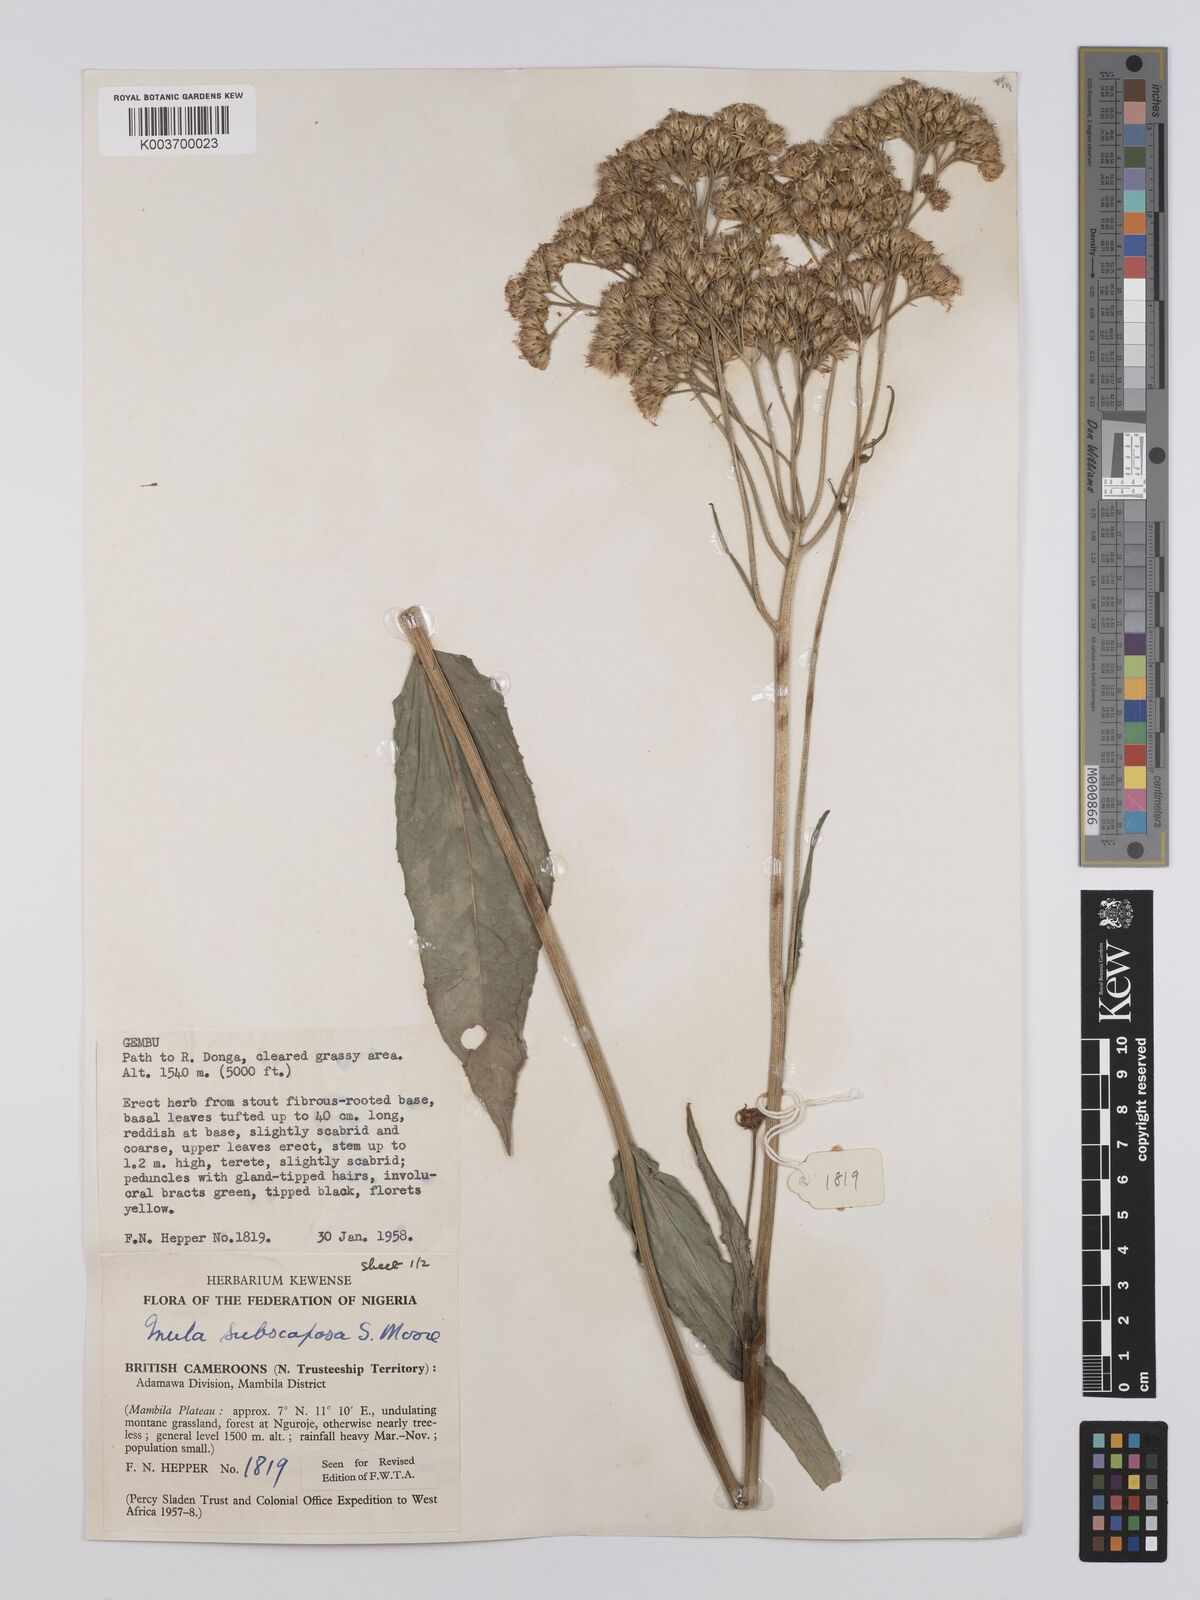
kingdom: Plantae
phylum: Tracheophyta
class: Magnoliopsida
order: Asterales
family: Asteraceae
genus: Monactinocephalus
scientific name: Monactinocephalus paniculatus
